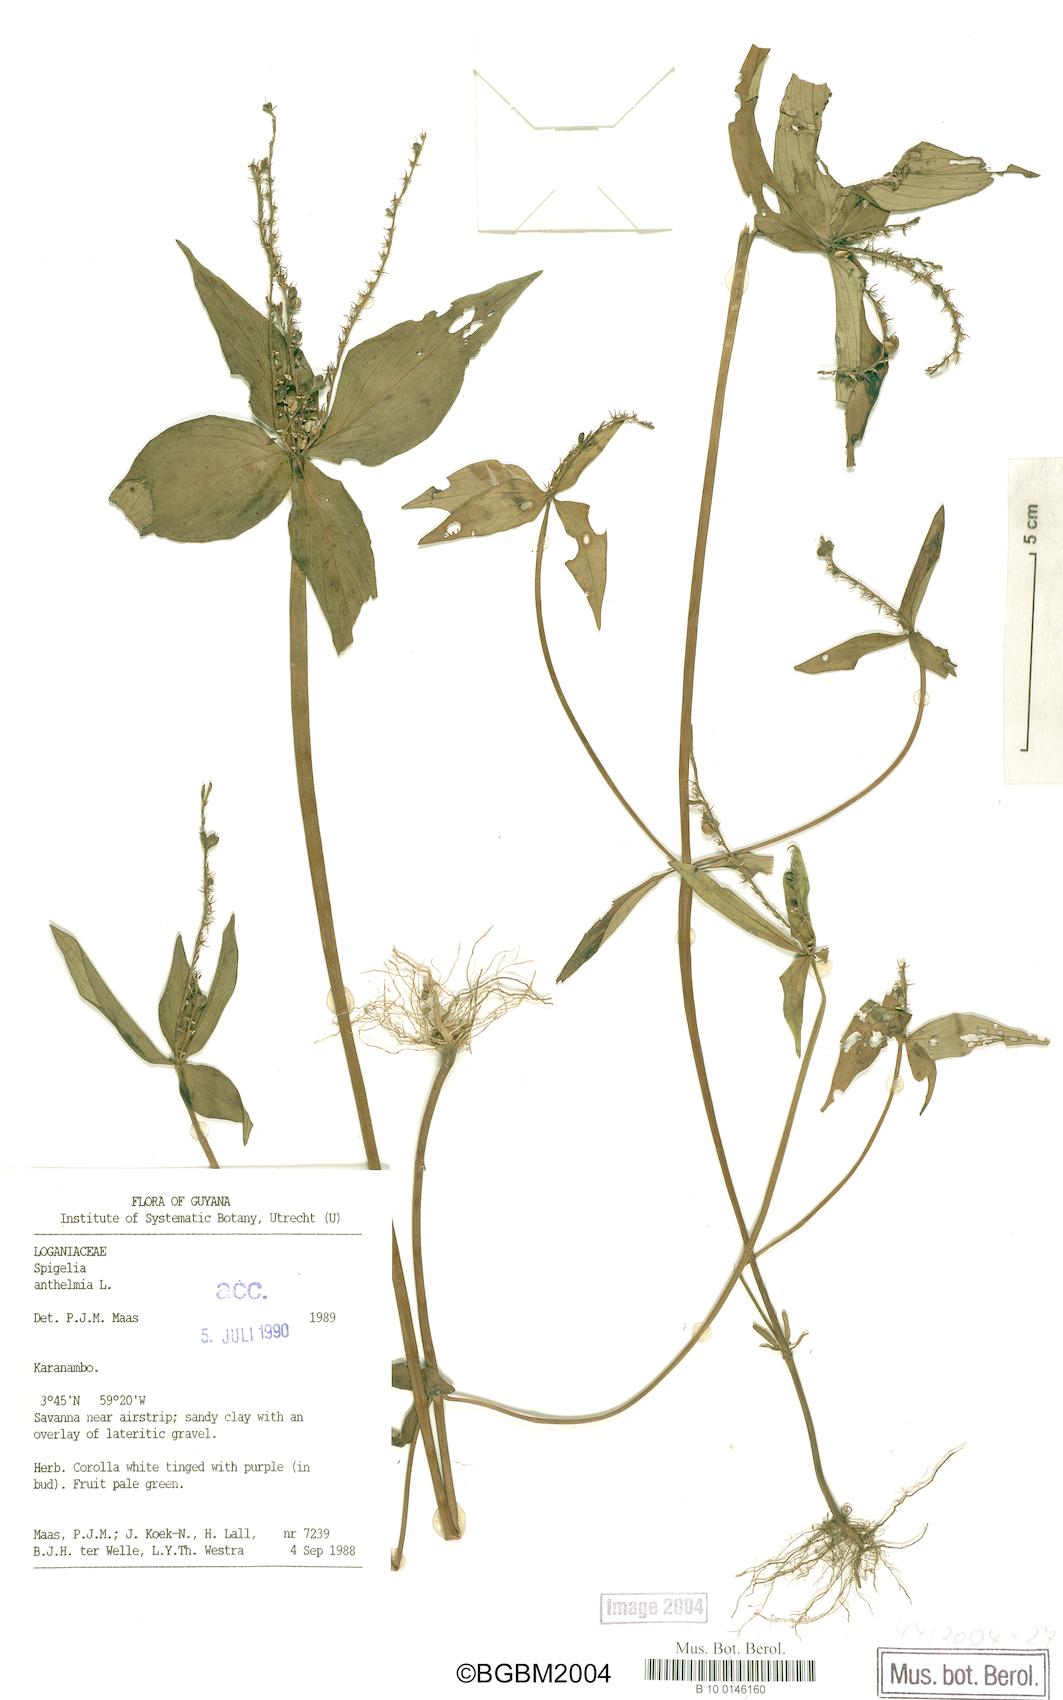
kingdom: Plantae
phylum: Tracheophyta
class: Magnoliopsida
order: Gentianales
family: Loganiaceae
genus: Spigelia
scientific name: Spigelia anthelmia
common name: West indian-pink
